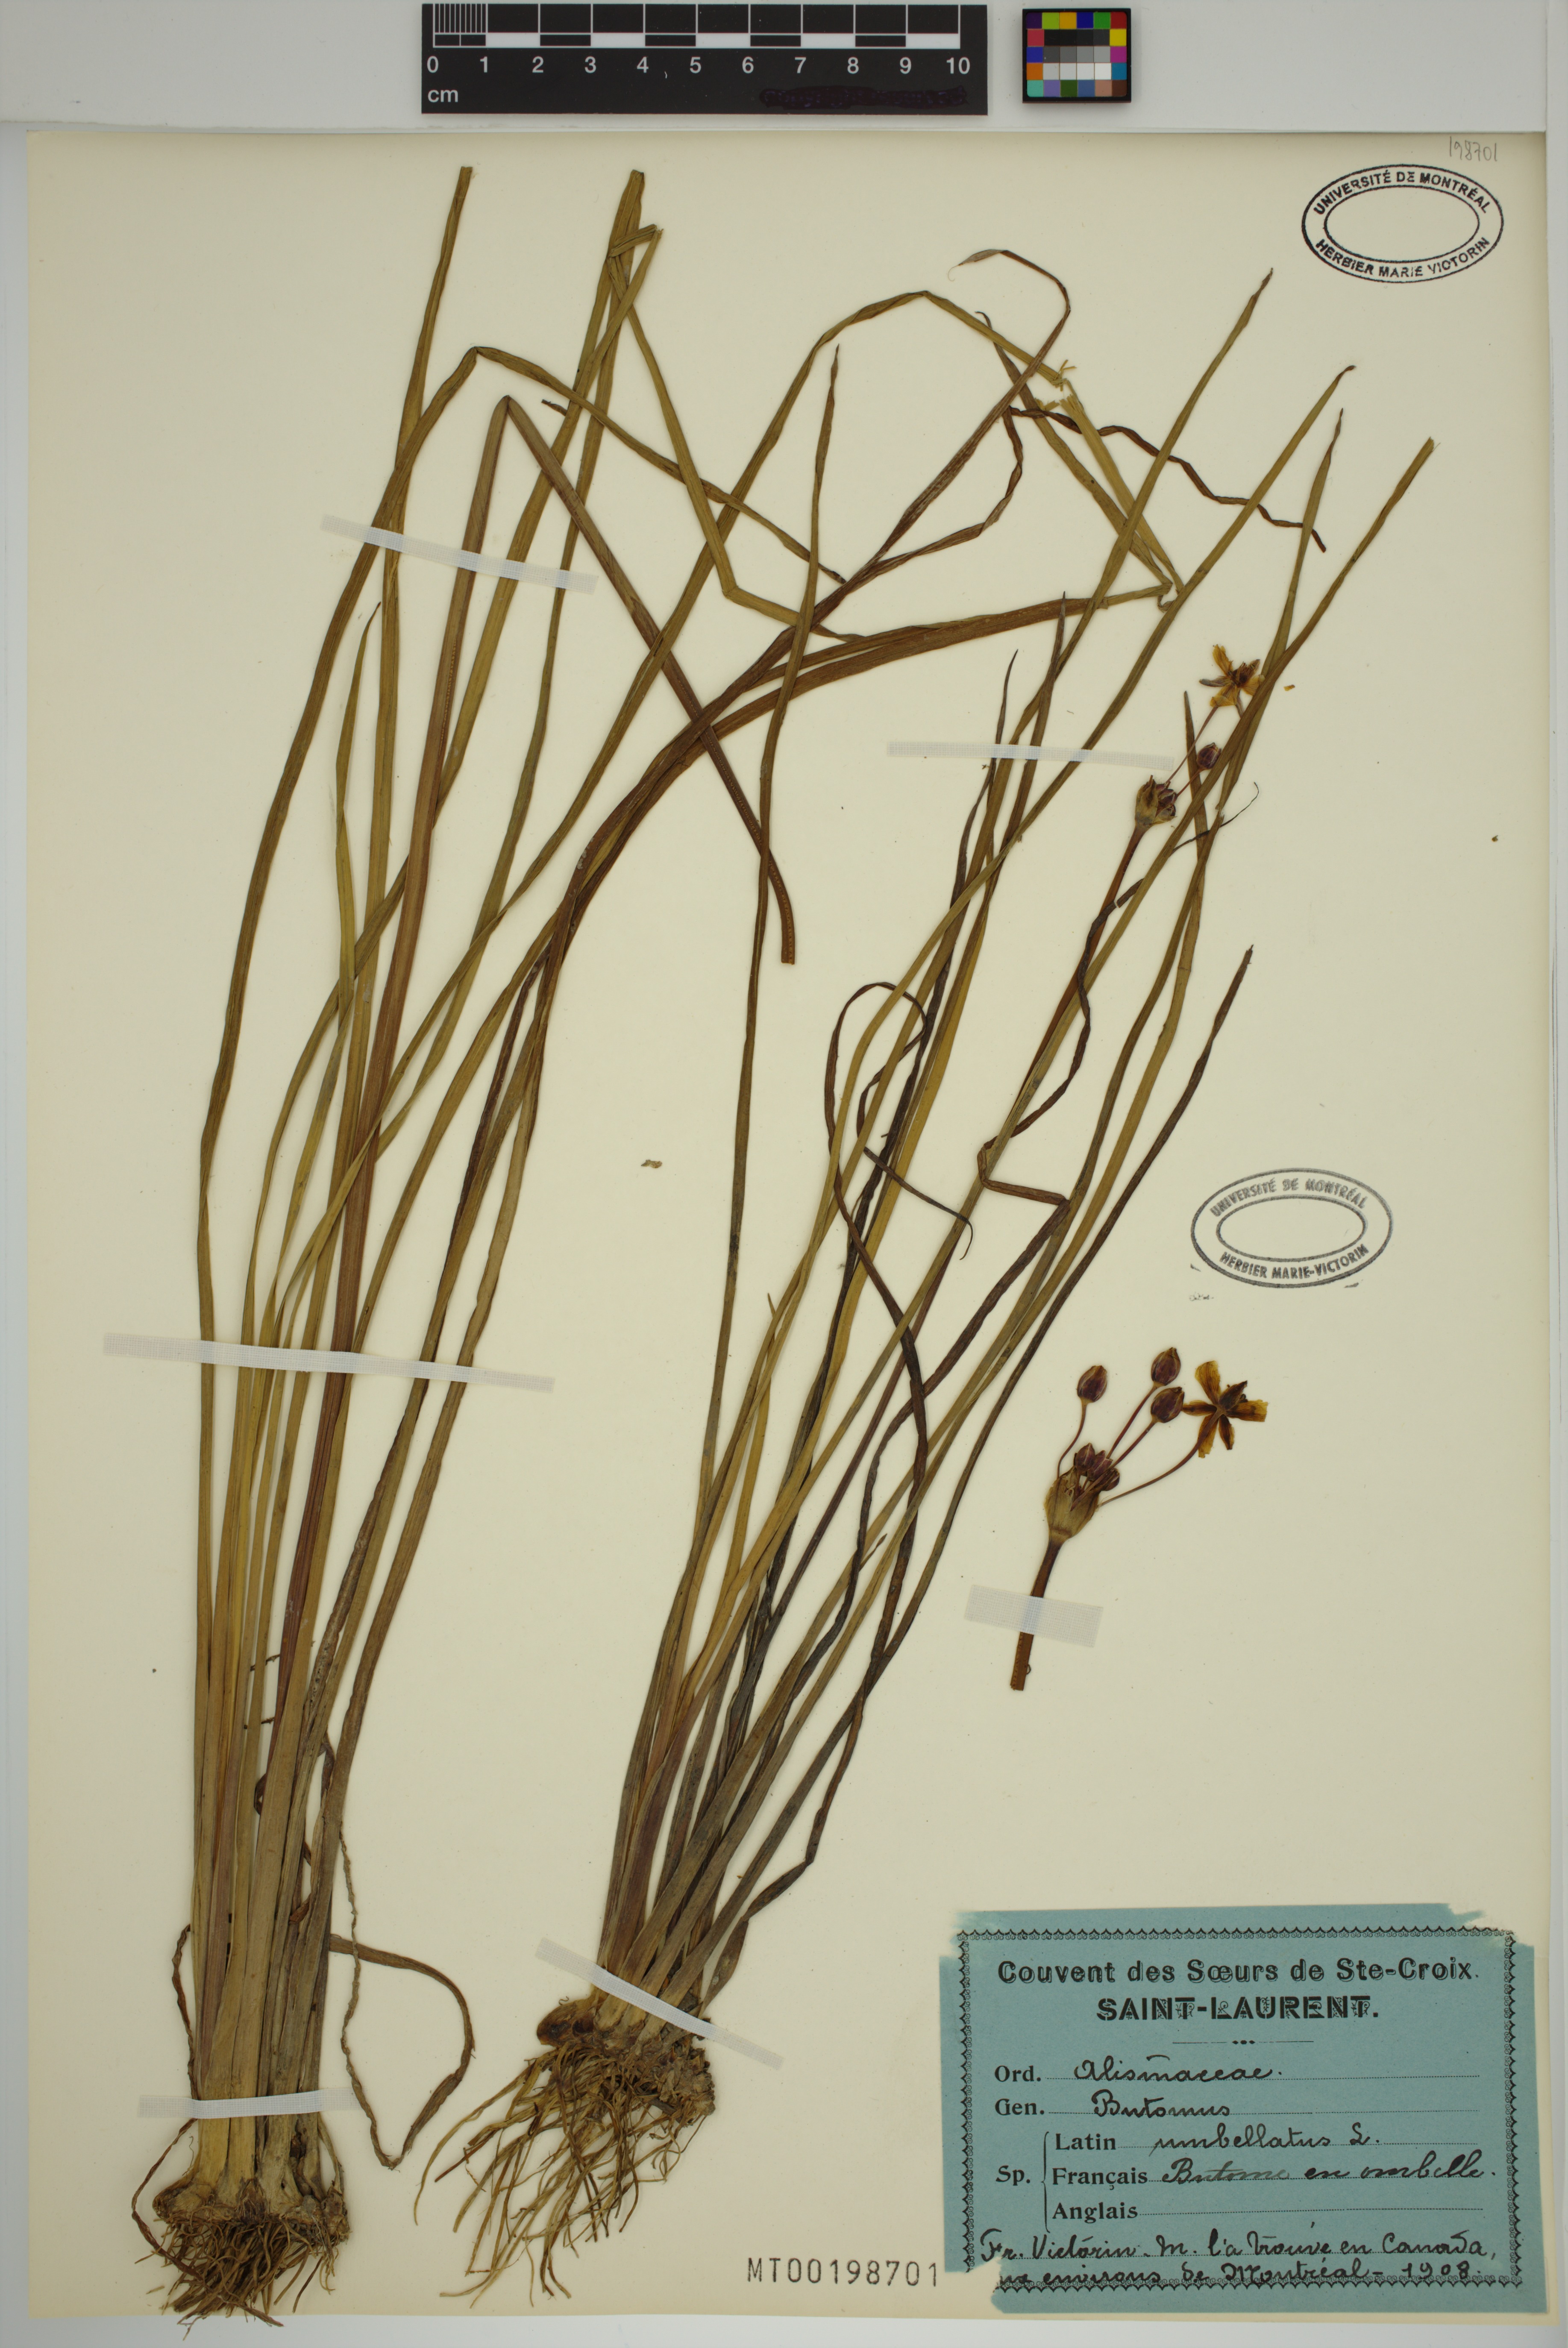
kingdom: Plantae
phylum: Tracheophyta
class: Liliopsida
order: Alismatales
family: Butomaceae
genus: Butomus
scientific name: Butomus umbellatus
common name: Flowering-rush
